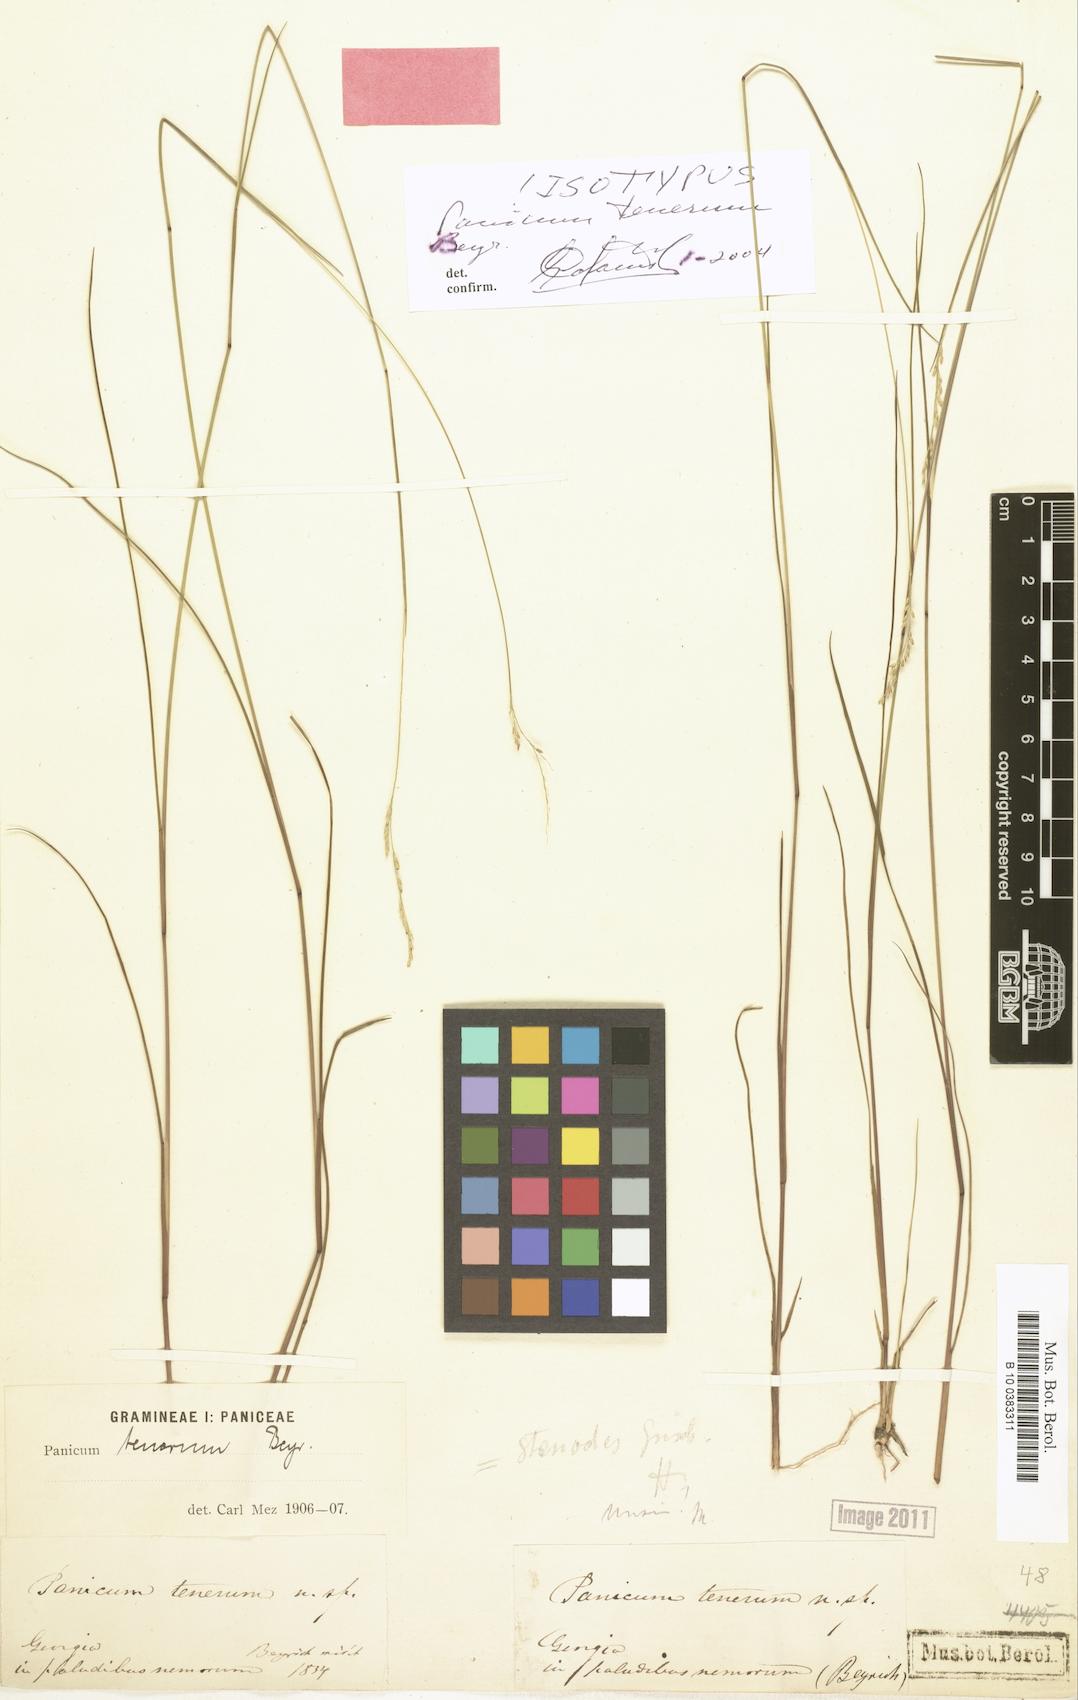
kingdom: Plantae
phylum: Tracheophyta
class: Liliopsida
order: Poales
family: Poaceae
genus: Coleataenia
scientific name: Coleataenia tenera
